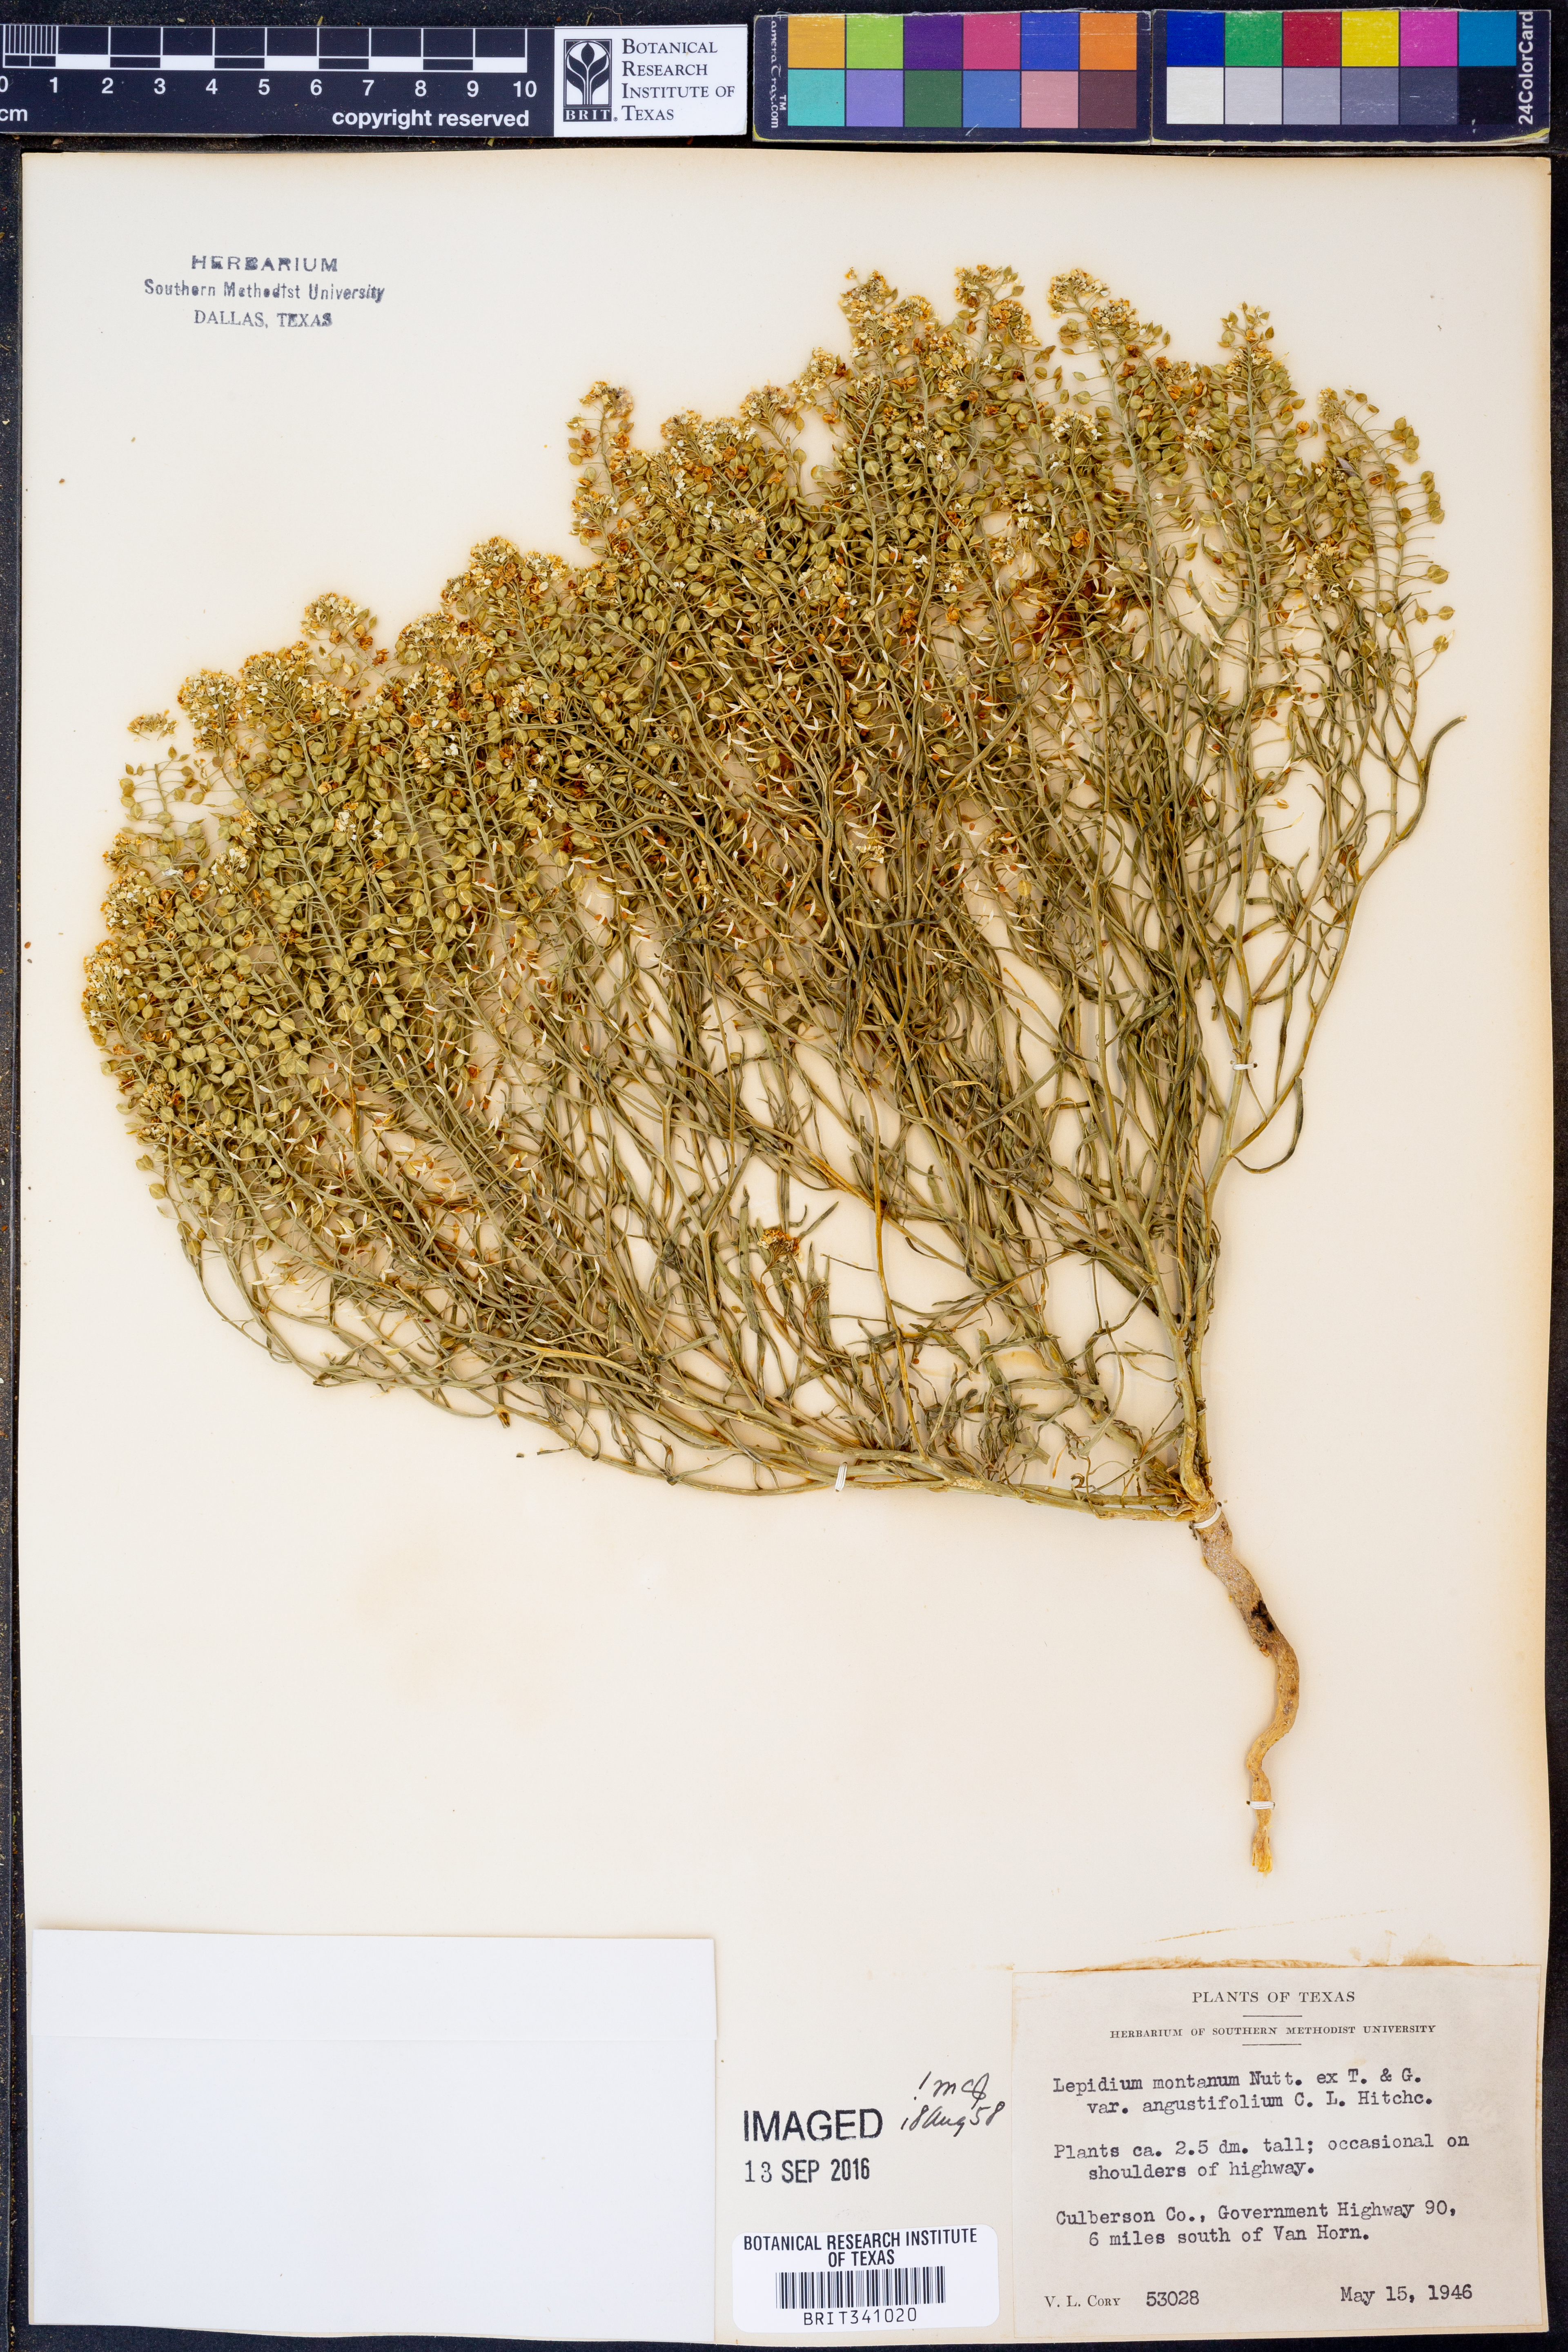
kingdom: Plantae
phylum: Tracheophyta
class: Magnoliopsida
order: Brassicales
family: Brassicaceae
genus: Lepidium
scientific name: Lepidium alyssoides
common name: Mesa pepperweed
